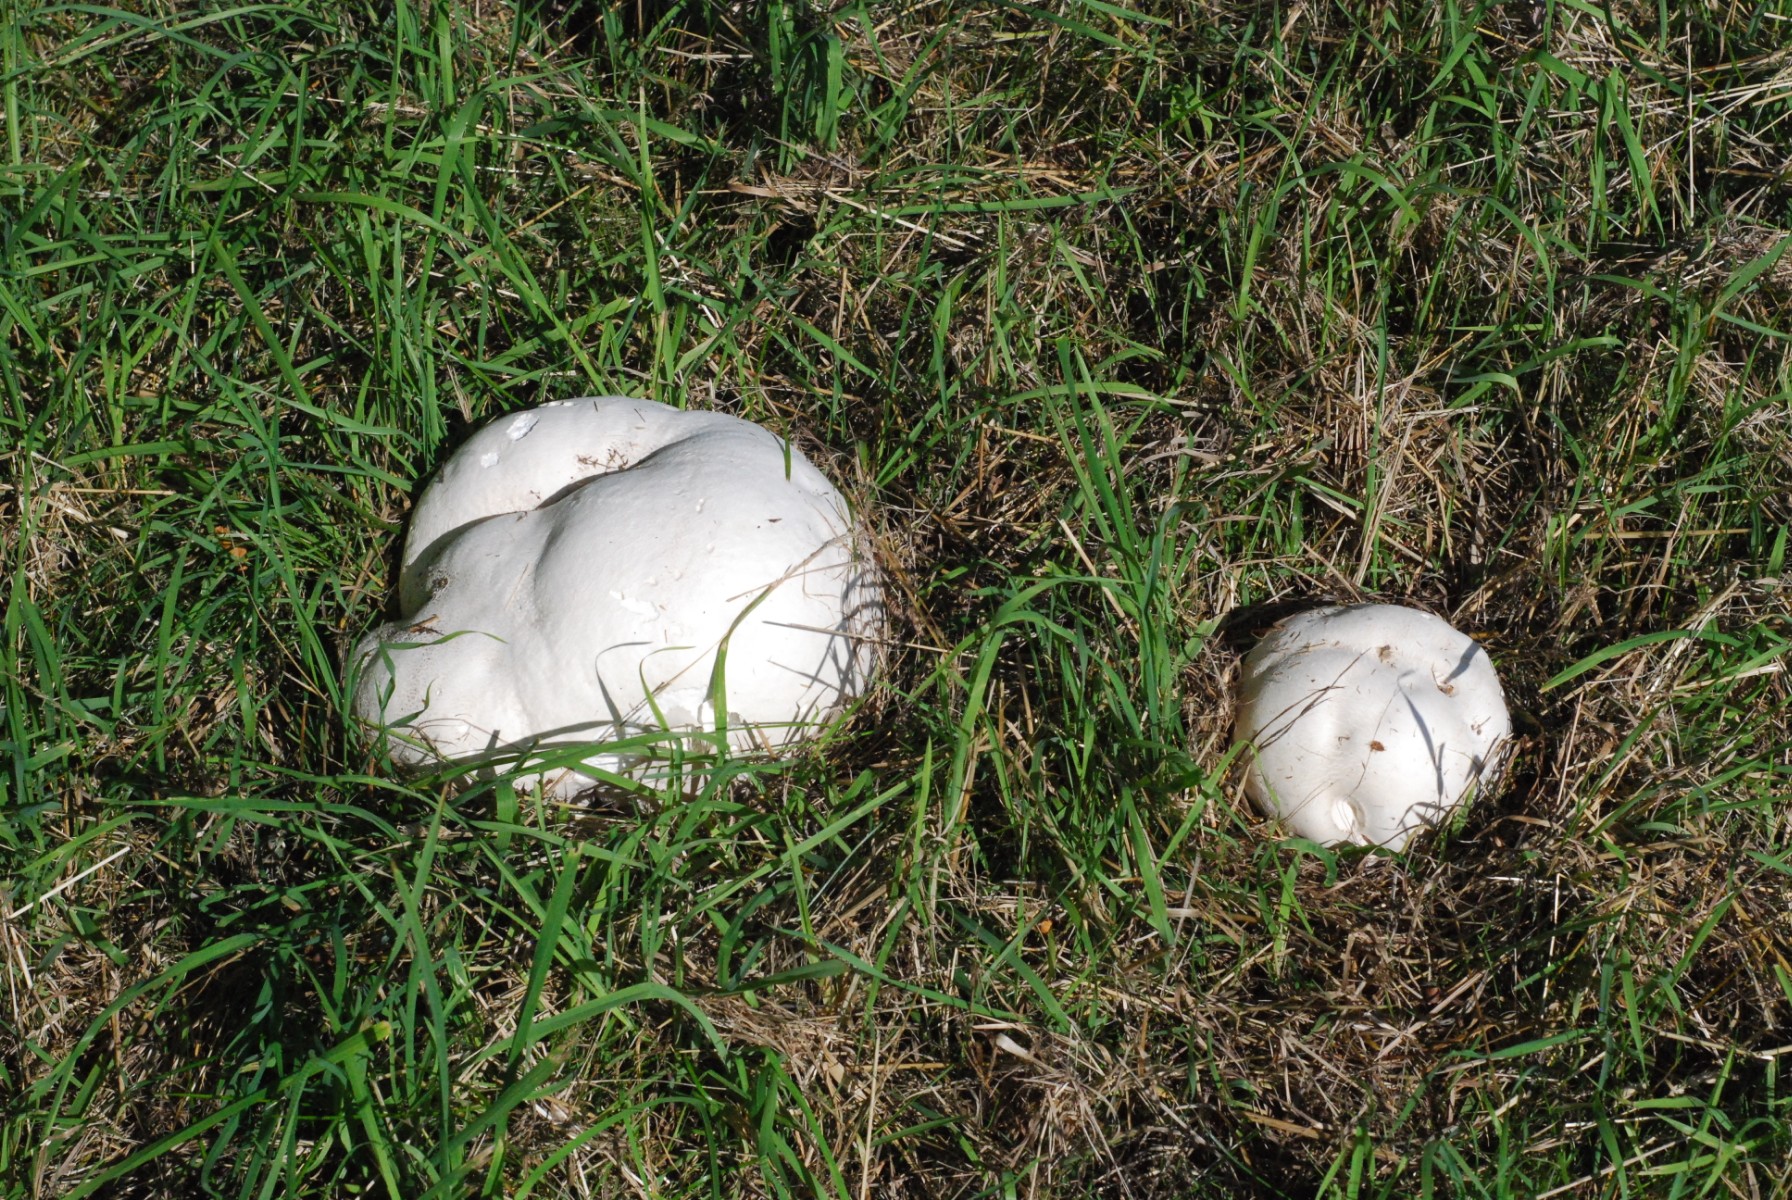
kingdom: Fungi
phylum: Basidiomycota
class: Agaricomycetes
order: Agaricales
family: Lycoperdaceae
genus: Calvatia
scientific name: Calvatia gigantea
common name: kæmpestøvbold
